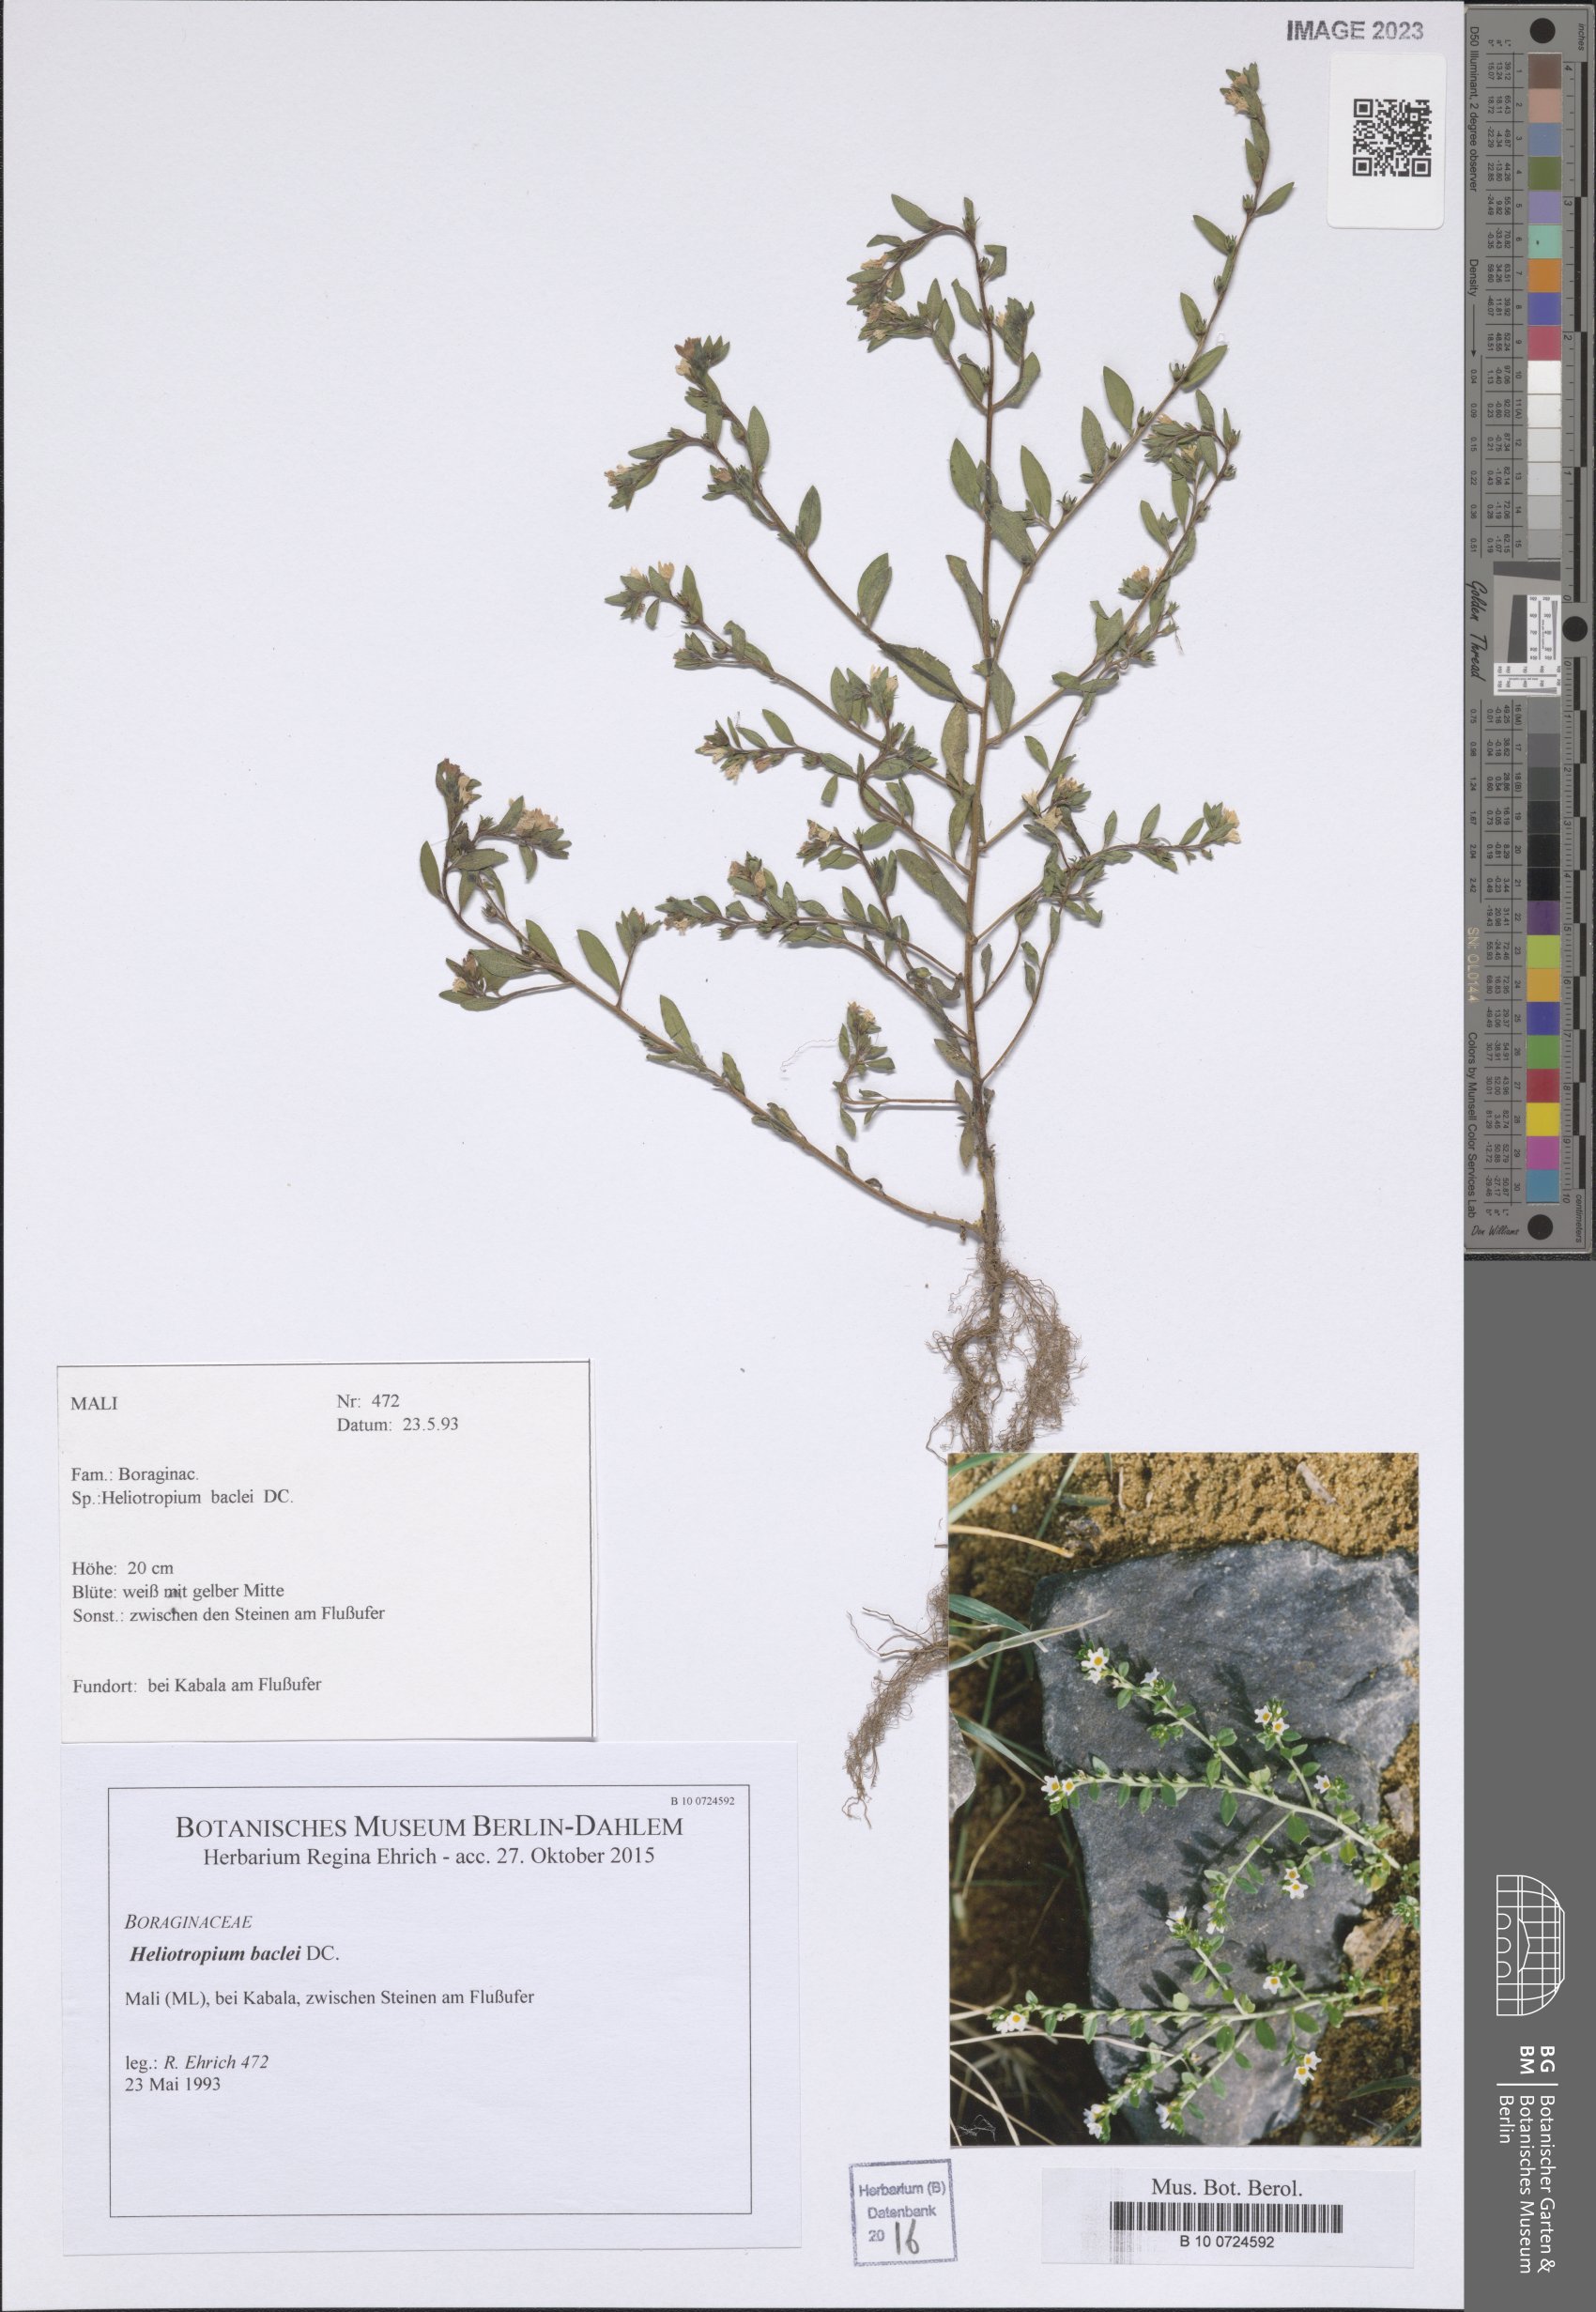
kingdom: Plantae
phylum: Tracheophyta
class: Magnoliopsida
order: Boraginales
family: Heliotropiaceae
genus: Euploca
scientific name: Euploca baclei
